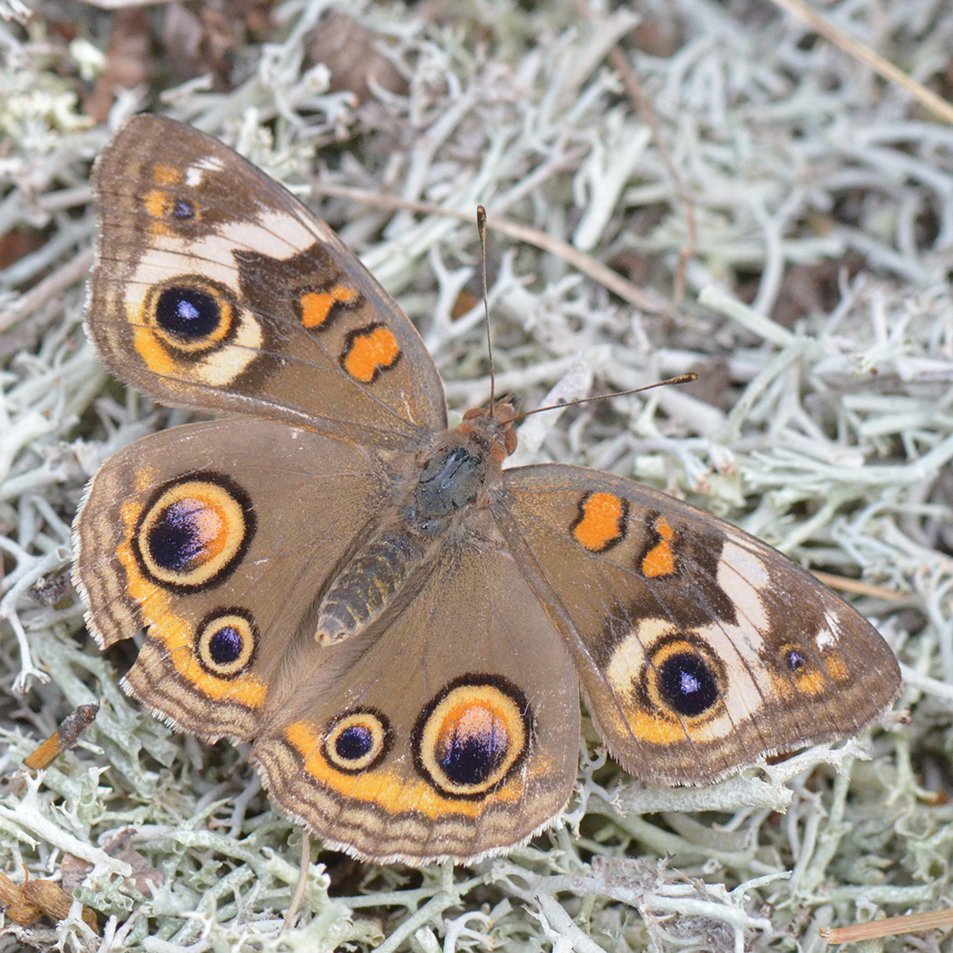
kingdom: Animalia
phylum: Arthropoda
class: Insecta
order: Lepidoptera
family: Nymphalidae
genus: Junonia
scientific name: Junonia coenia
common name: Common Buckeye
